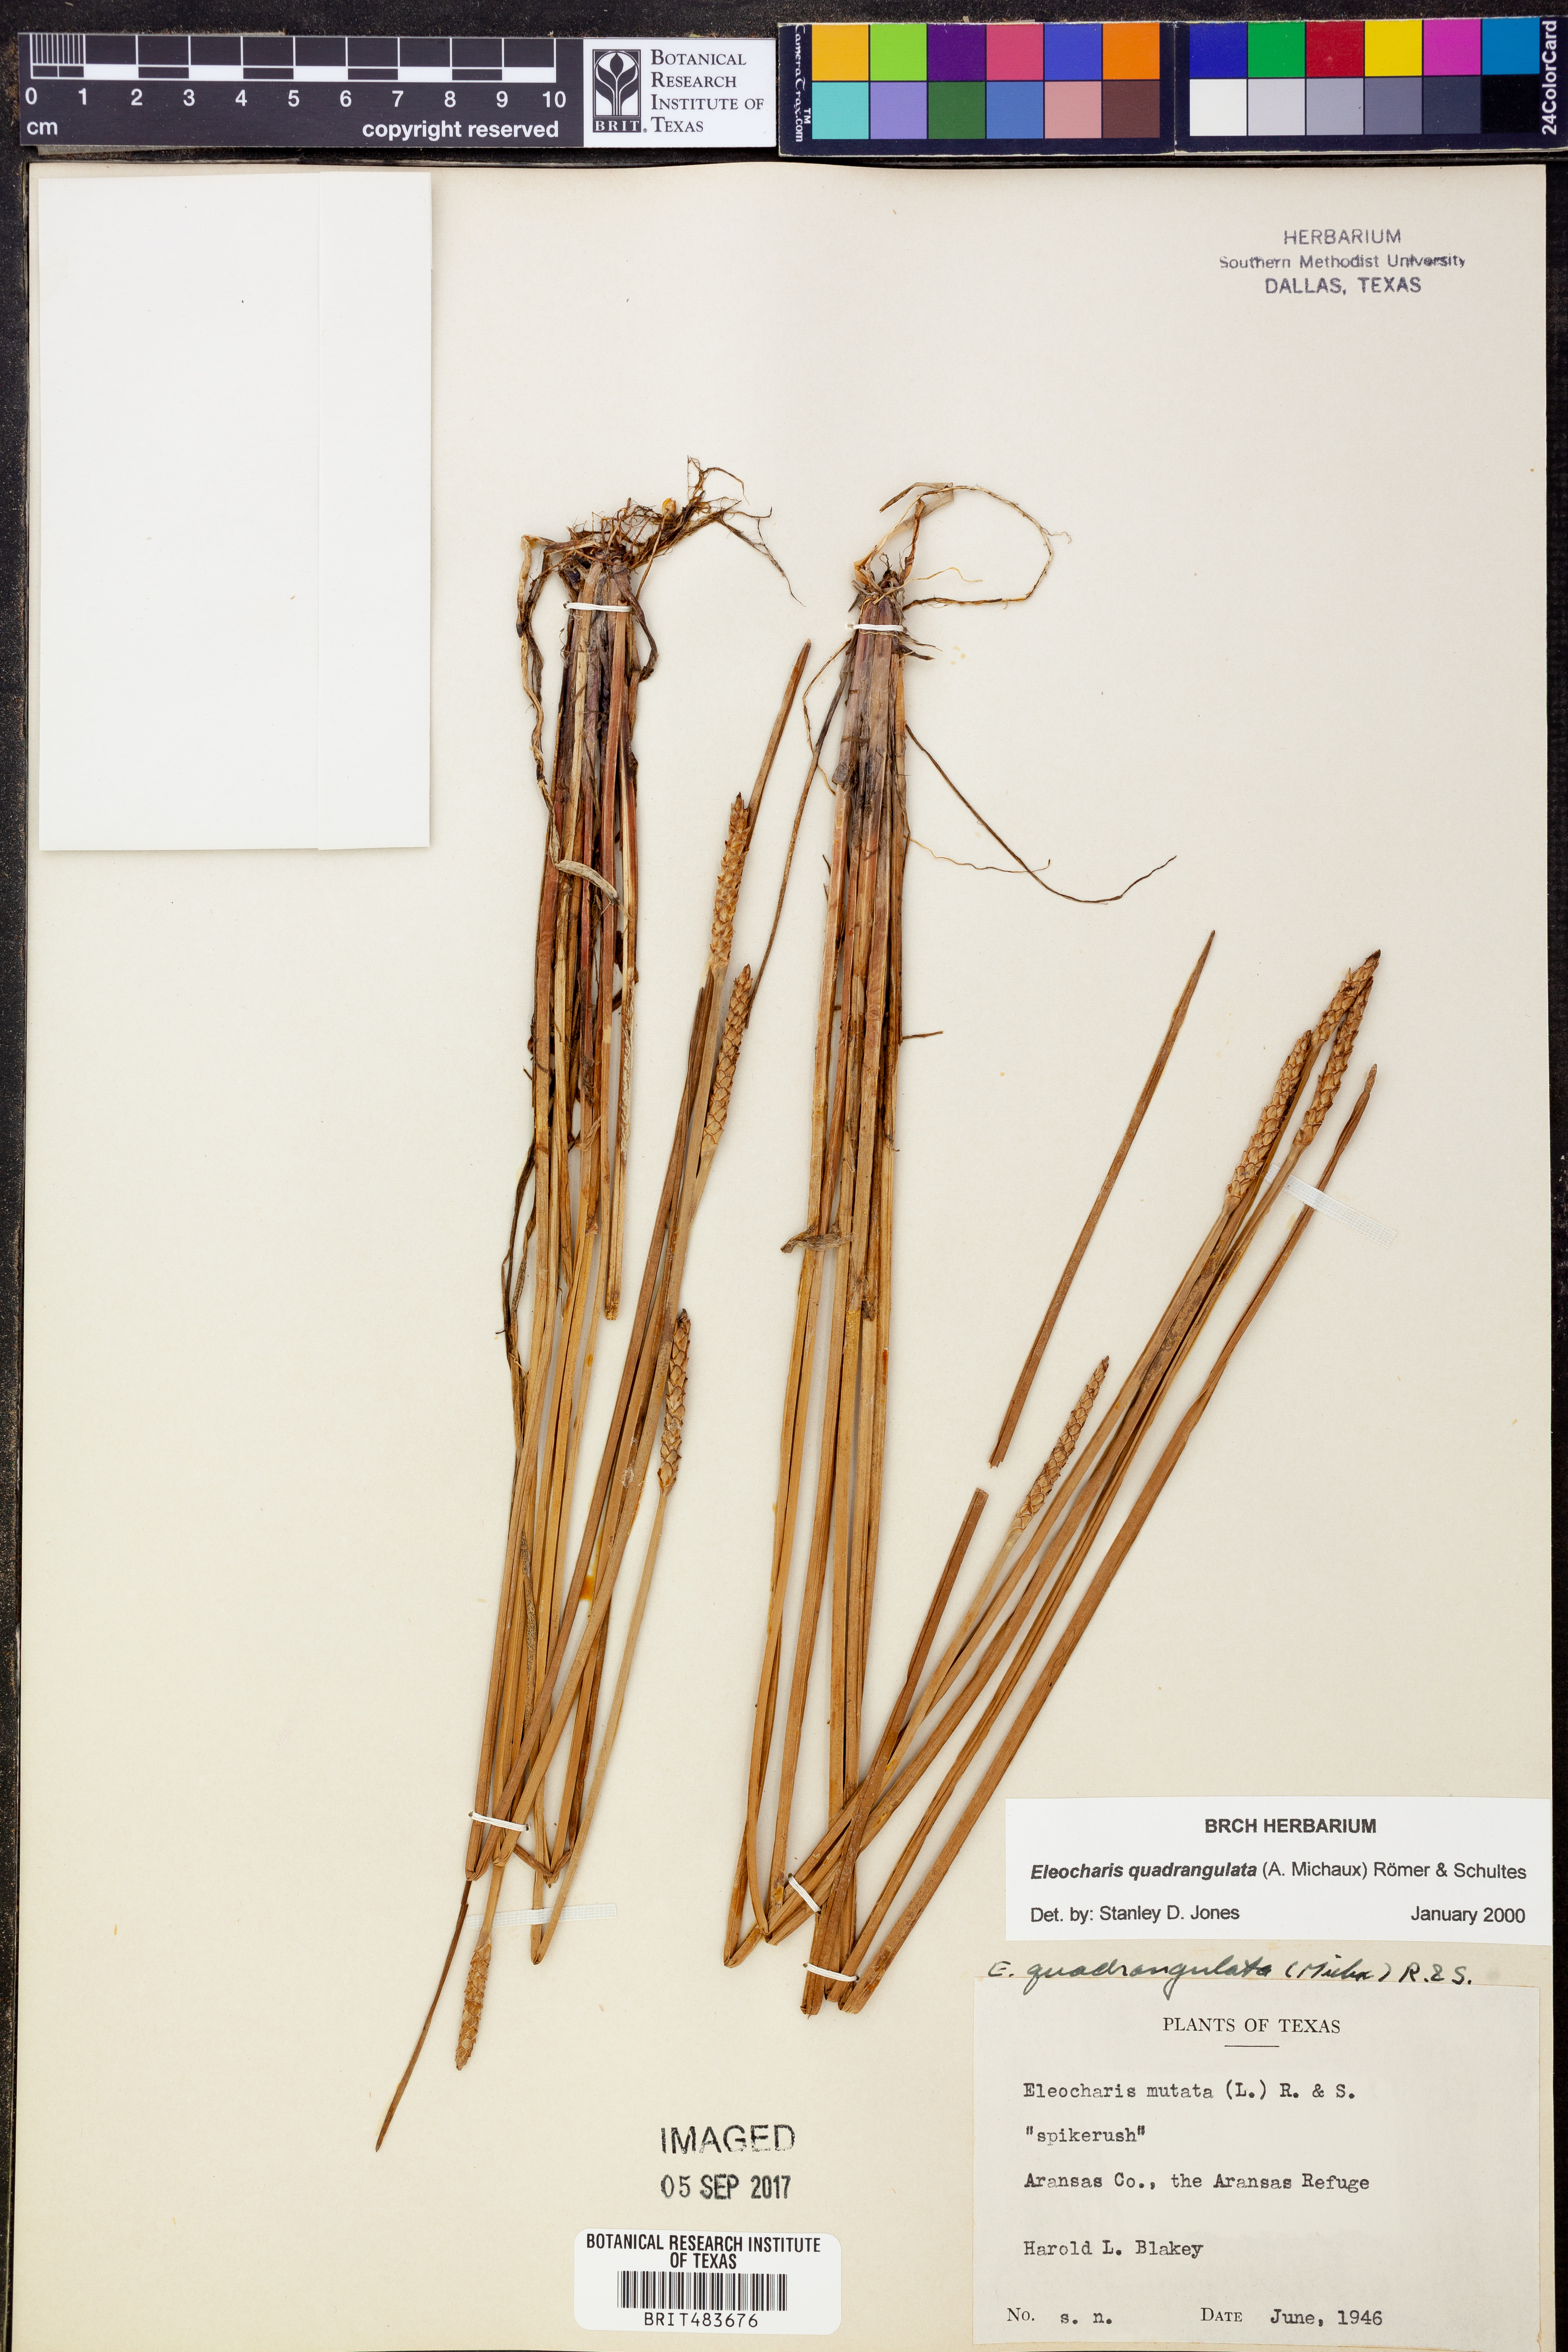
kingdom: Plantae
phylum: Tracheophyta
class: Liliopsida
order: Poales
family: Cyperaceae
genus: Eleocharis
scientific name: Eleocharis quadrangulata
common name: Square-stem spike-rush
